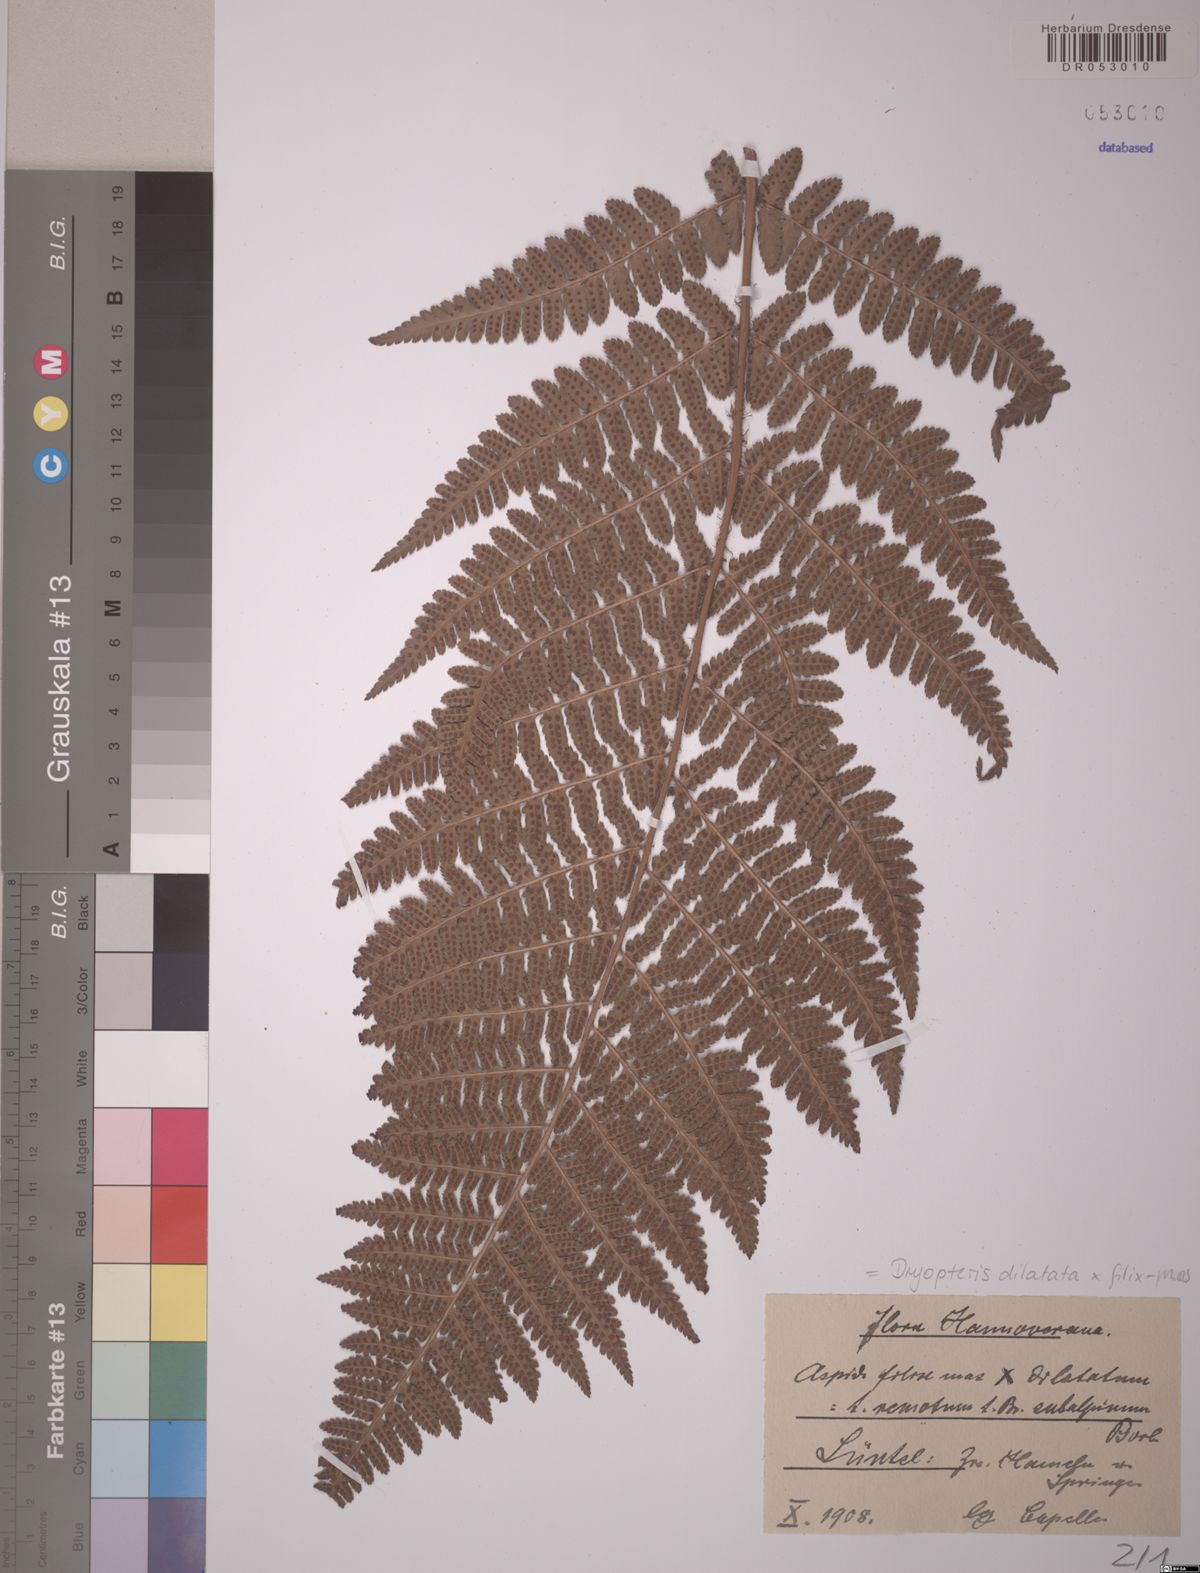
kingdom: Plantae
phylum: Tracheophyta
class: Polypodiopsida
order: Polypodiales
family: Dryopteridaceae
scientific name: Dryopteridaceae
